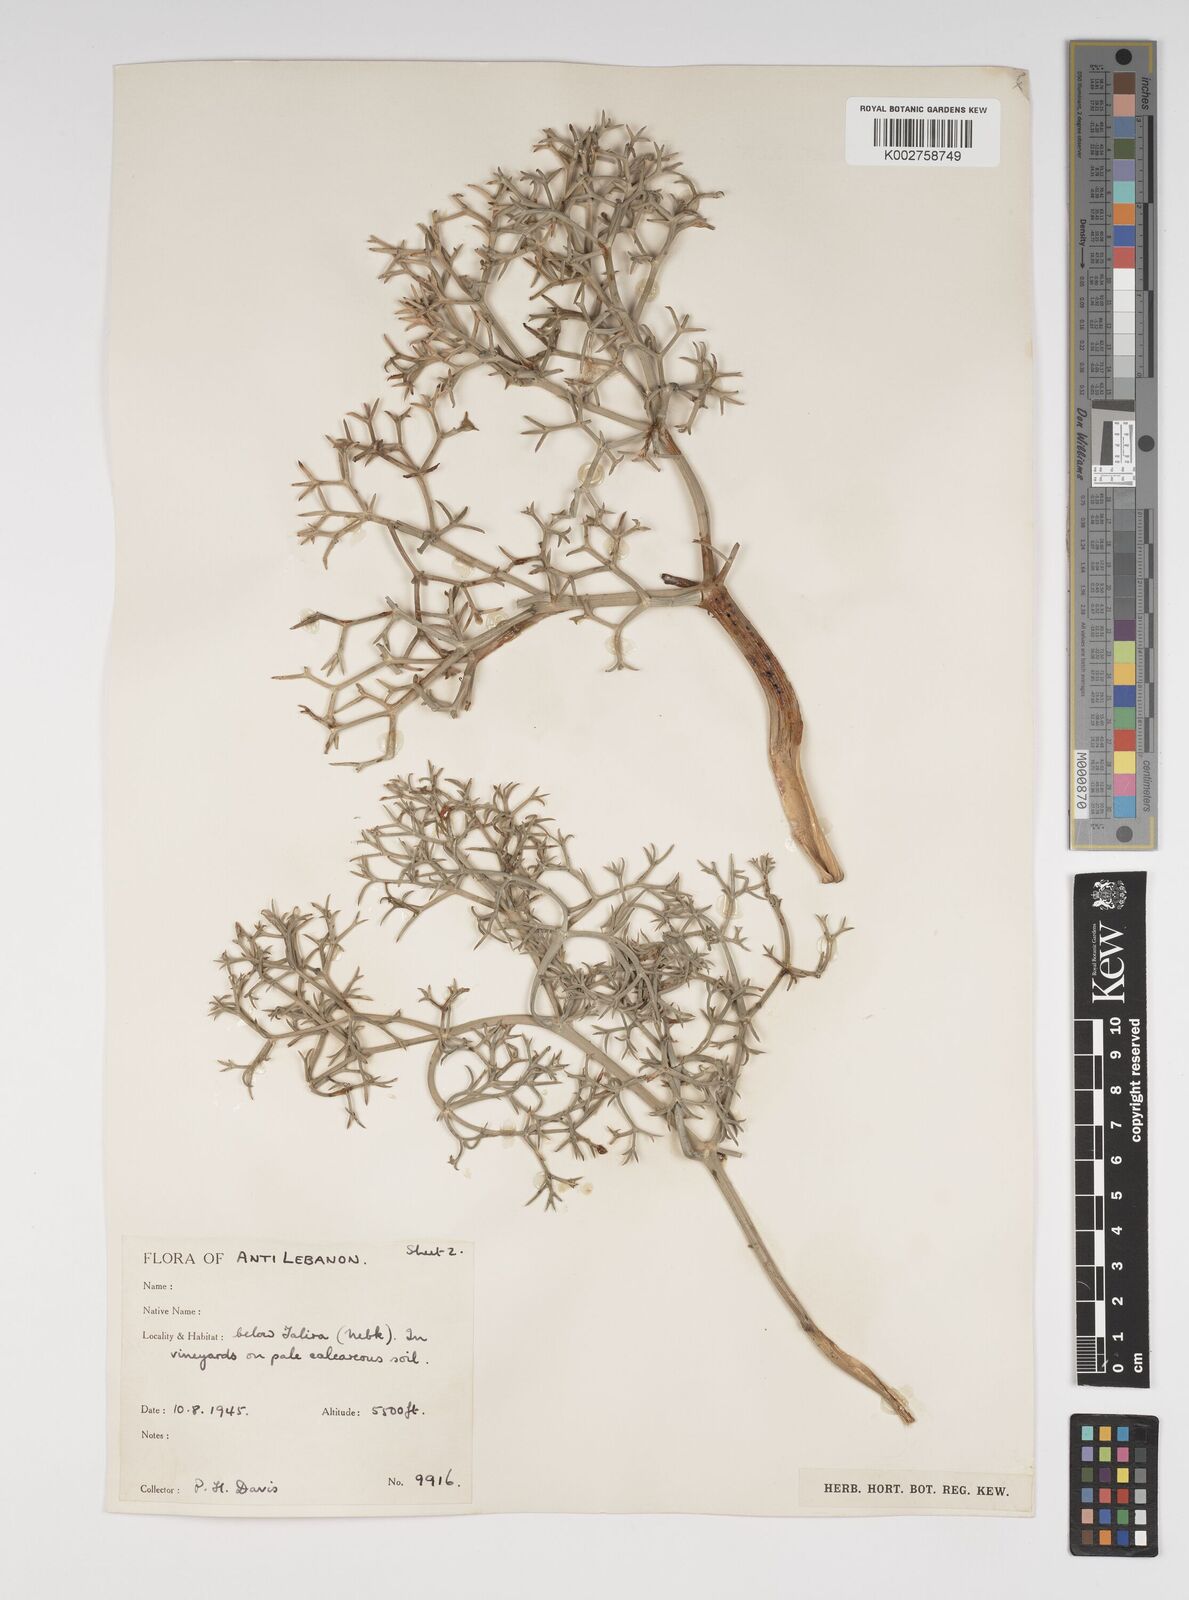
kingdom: Plantae
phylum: Tracheophyta
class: Magnoliopsida
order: Apiales
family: Apiaceae
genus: Cachrys
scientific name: Cachrys boissieri
